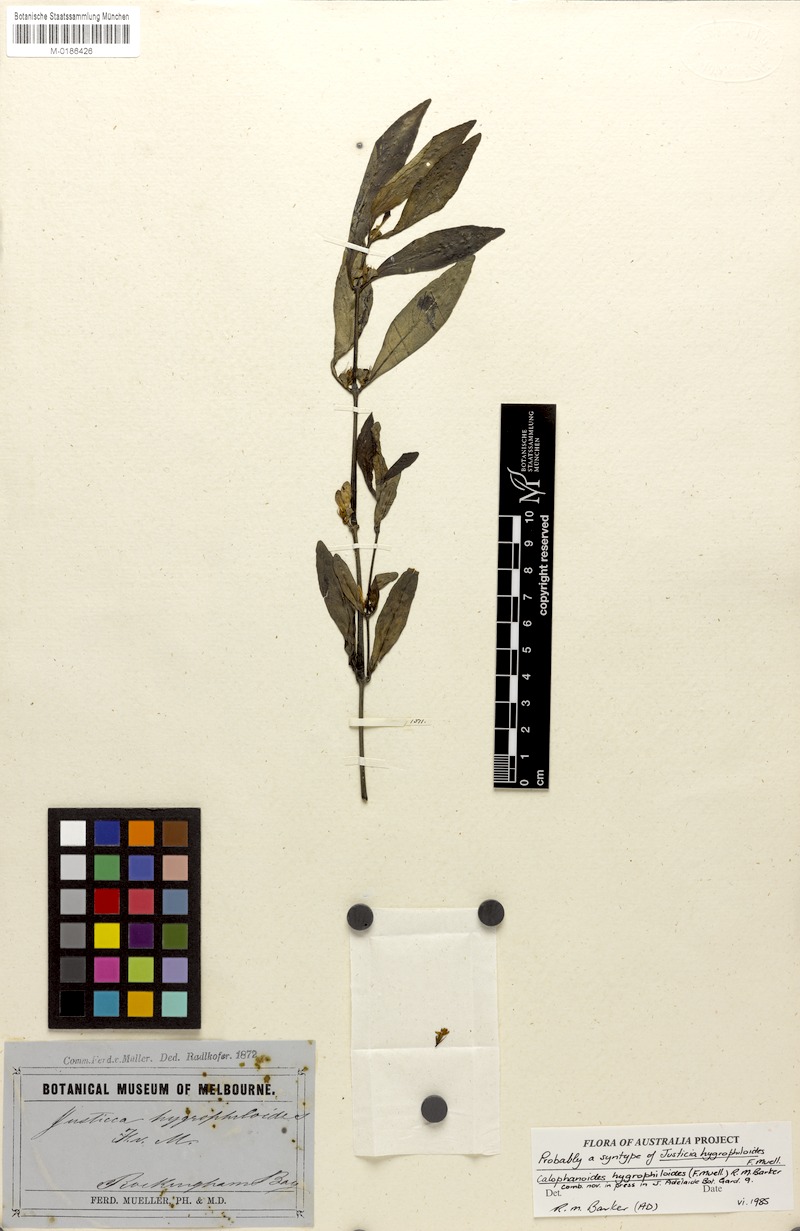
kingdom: Plantae
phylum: Tracheophyta
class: Magnoliopsida
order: Lamiales
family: Acanthaceae
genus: Justicia
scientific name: Justicia hygrophiloides
